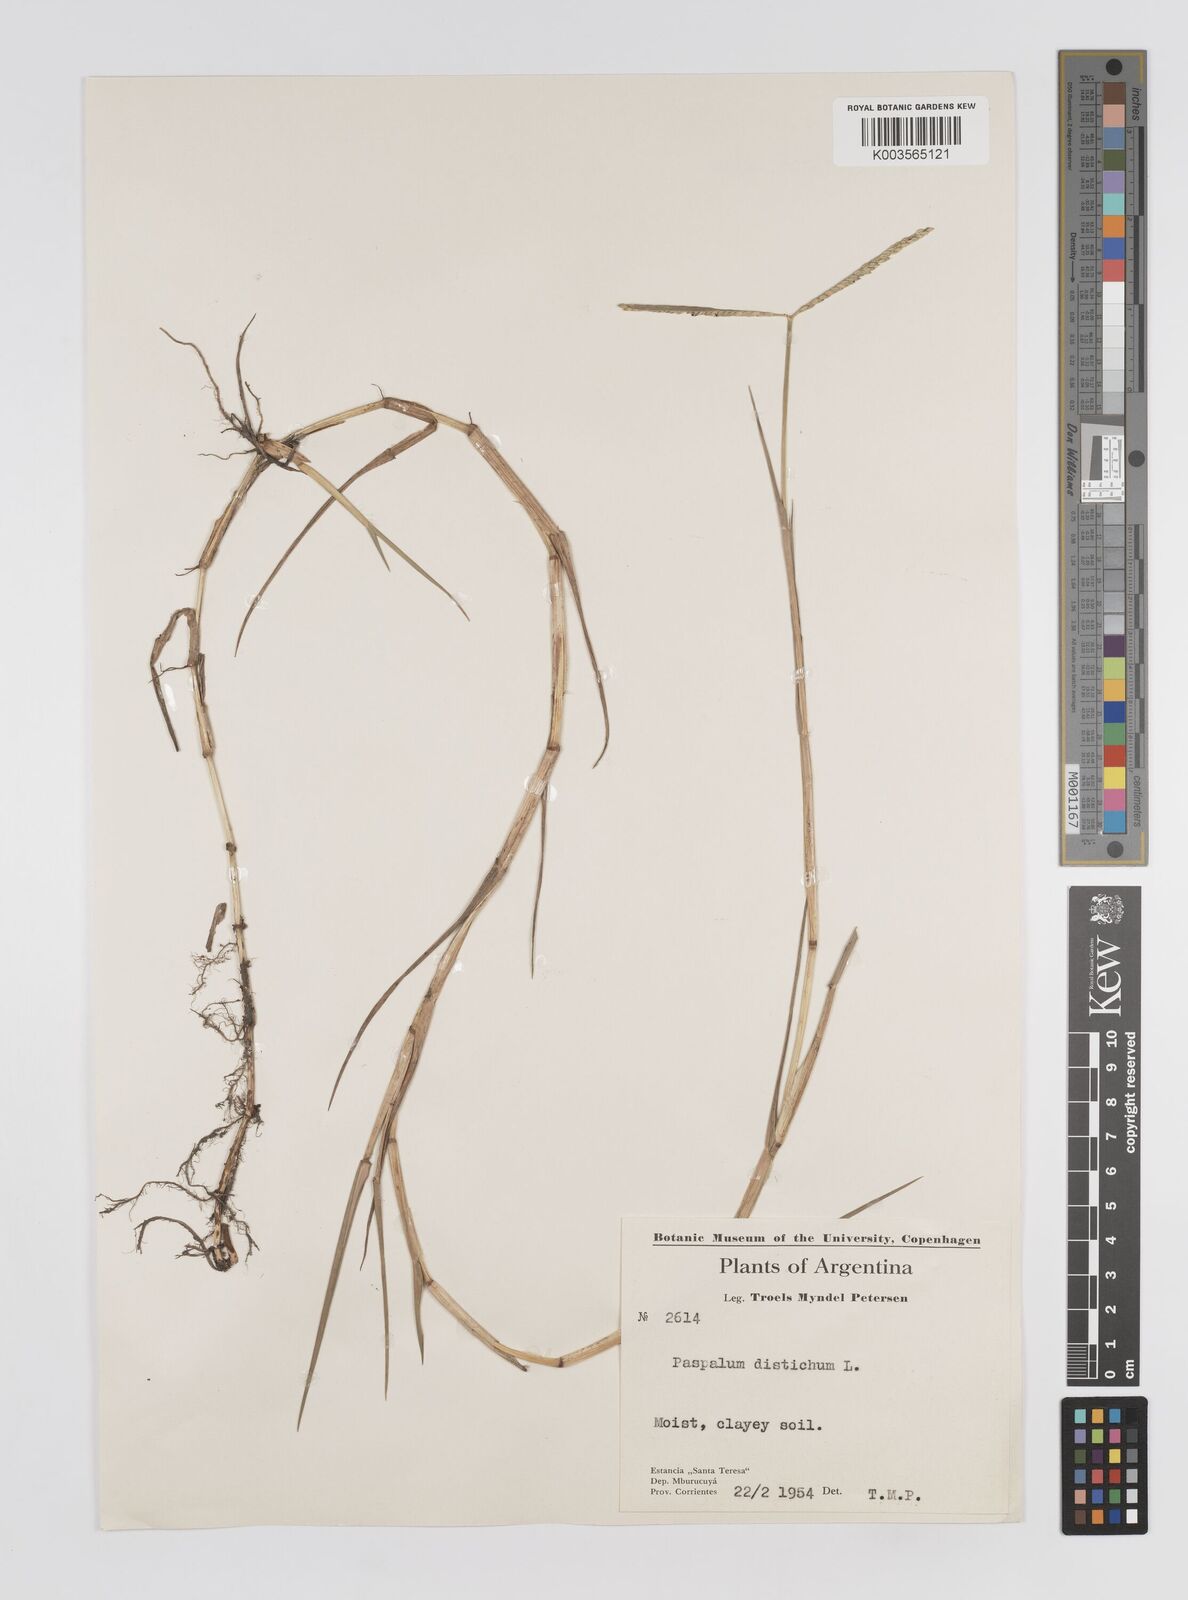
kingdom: Plantae
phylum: Tracheophyta
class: Liliopsida
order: Poales
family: Poaceae
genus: Paspalum
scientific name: Paspalum distichum
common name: Knotgrass
